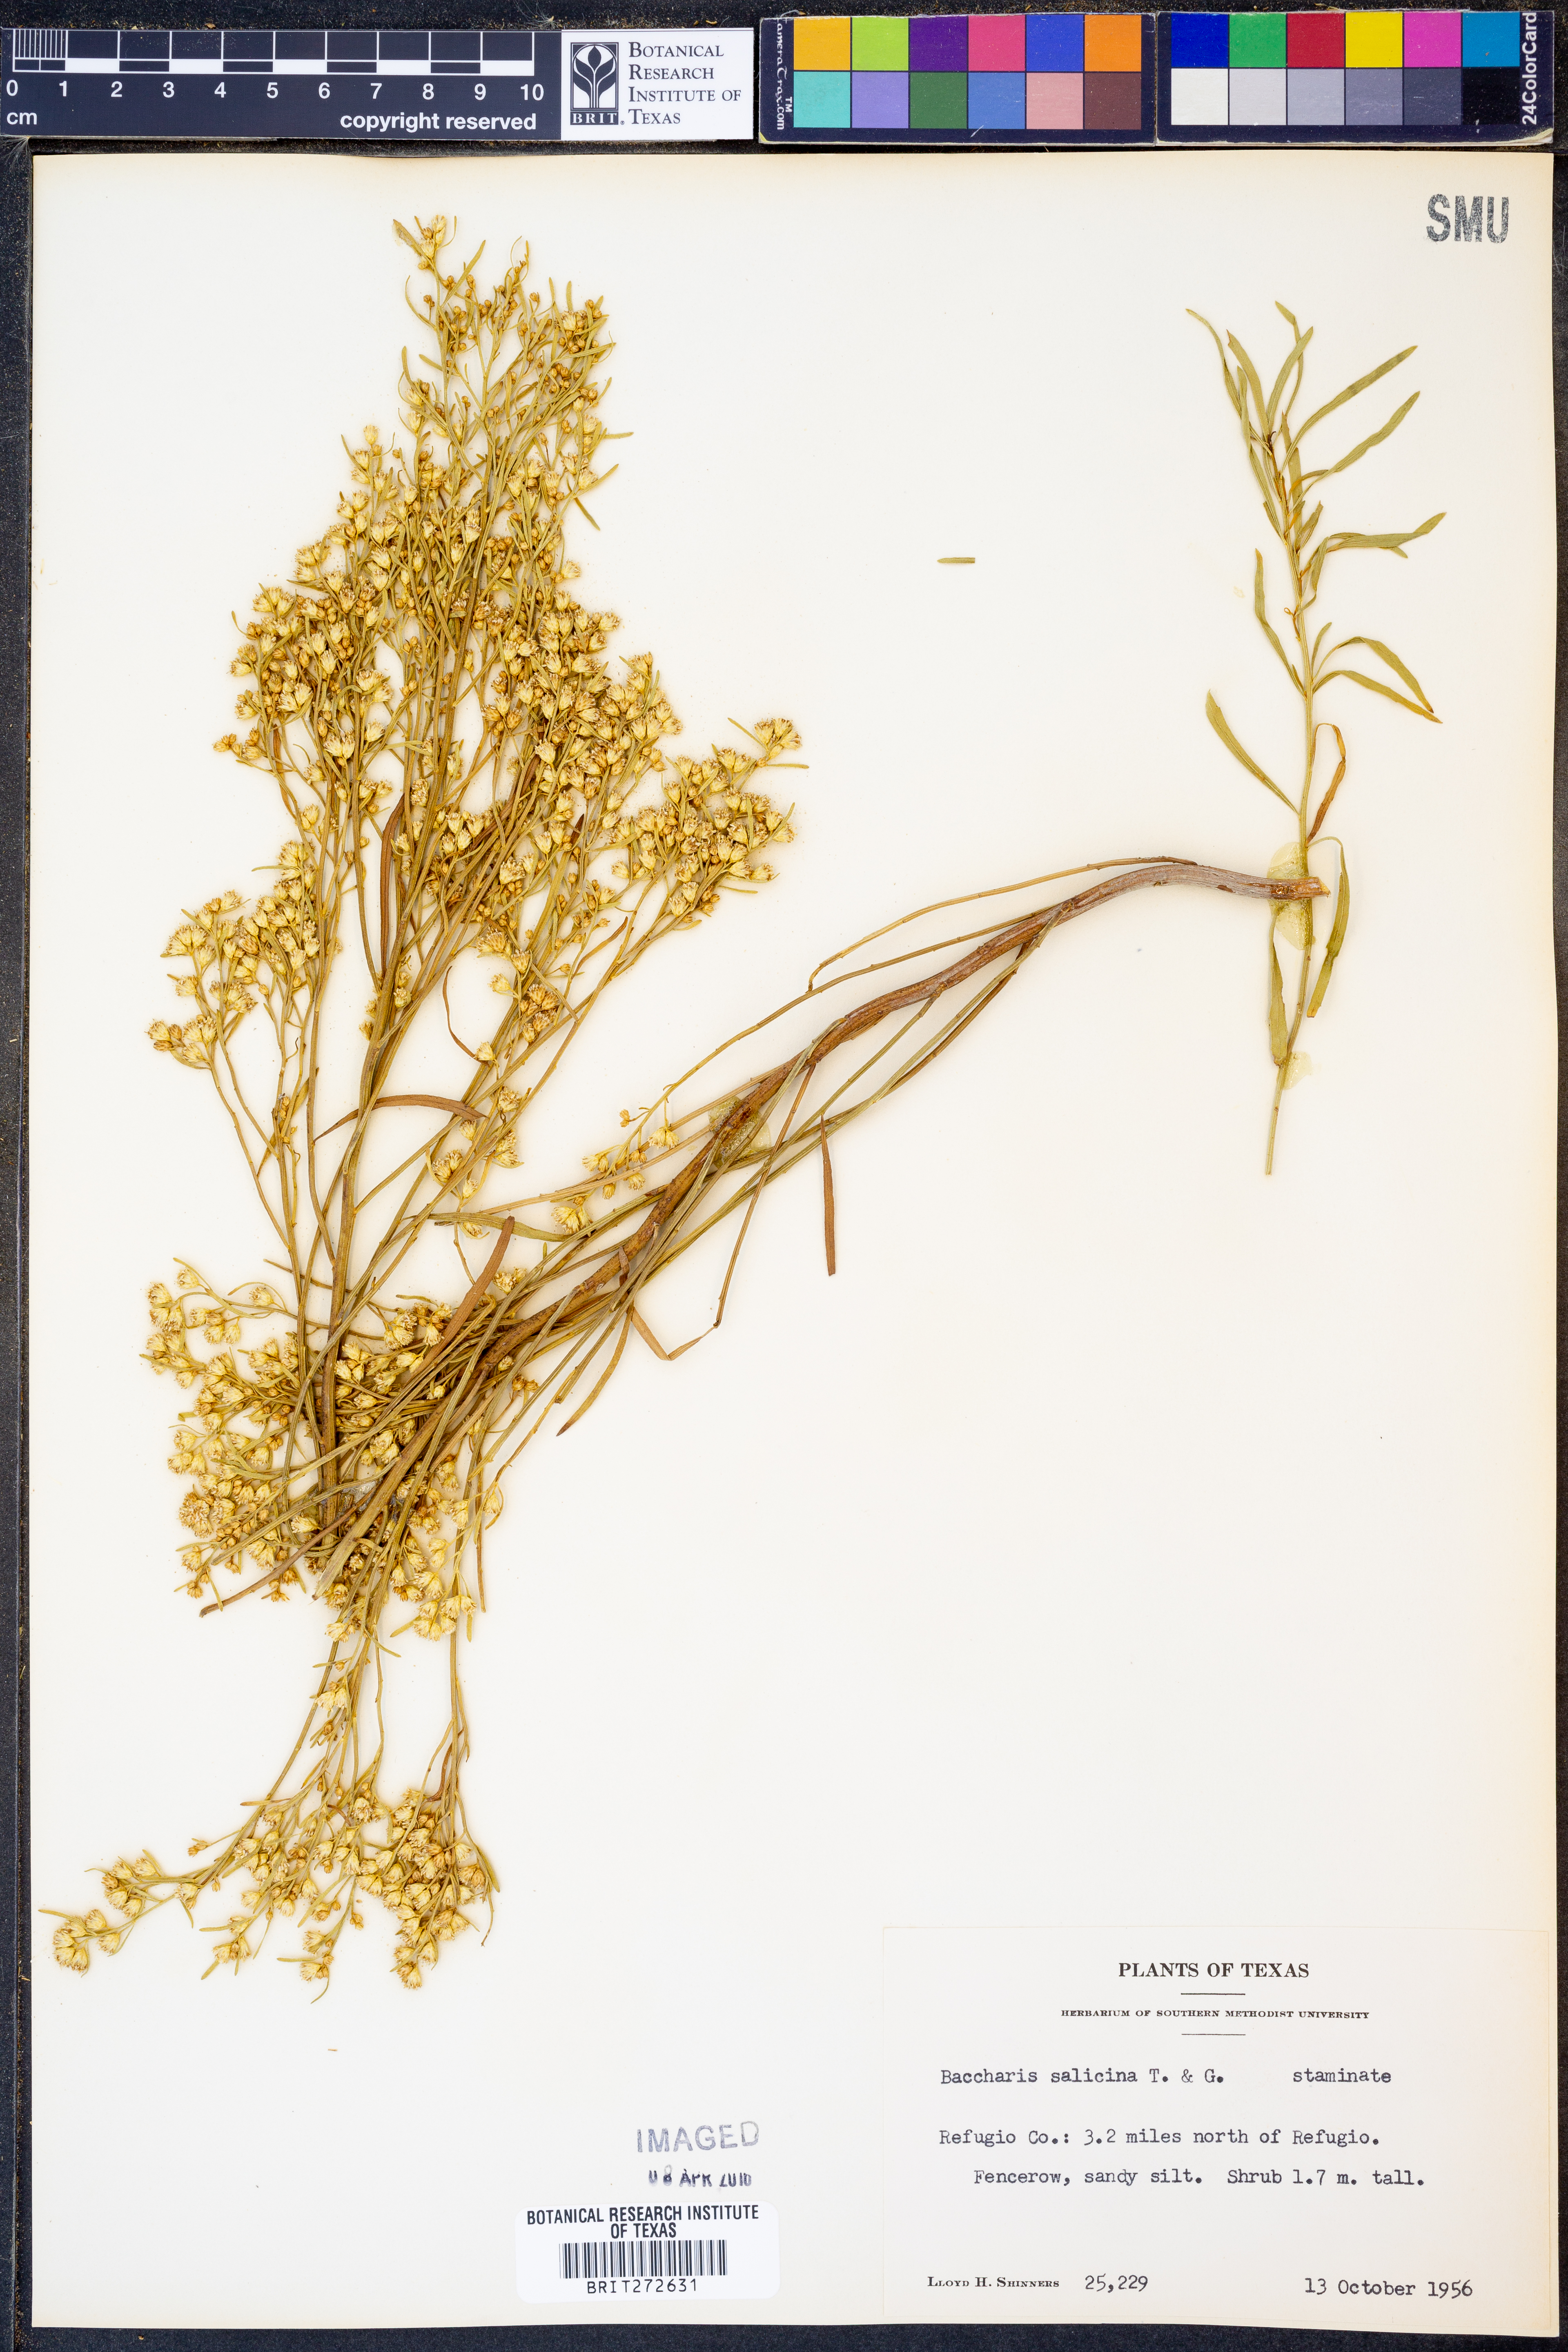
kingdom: Plantae
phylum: Tracheophyta
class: Magnoliopsida
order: Asterales
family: Asteraceae
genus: Baccharis
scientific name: Baccharis salicina
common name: Willow baccharis
